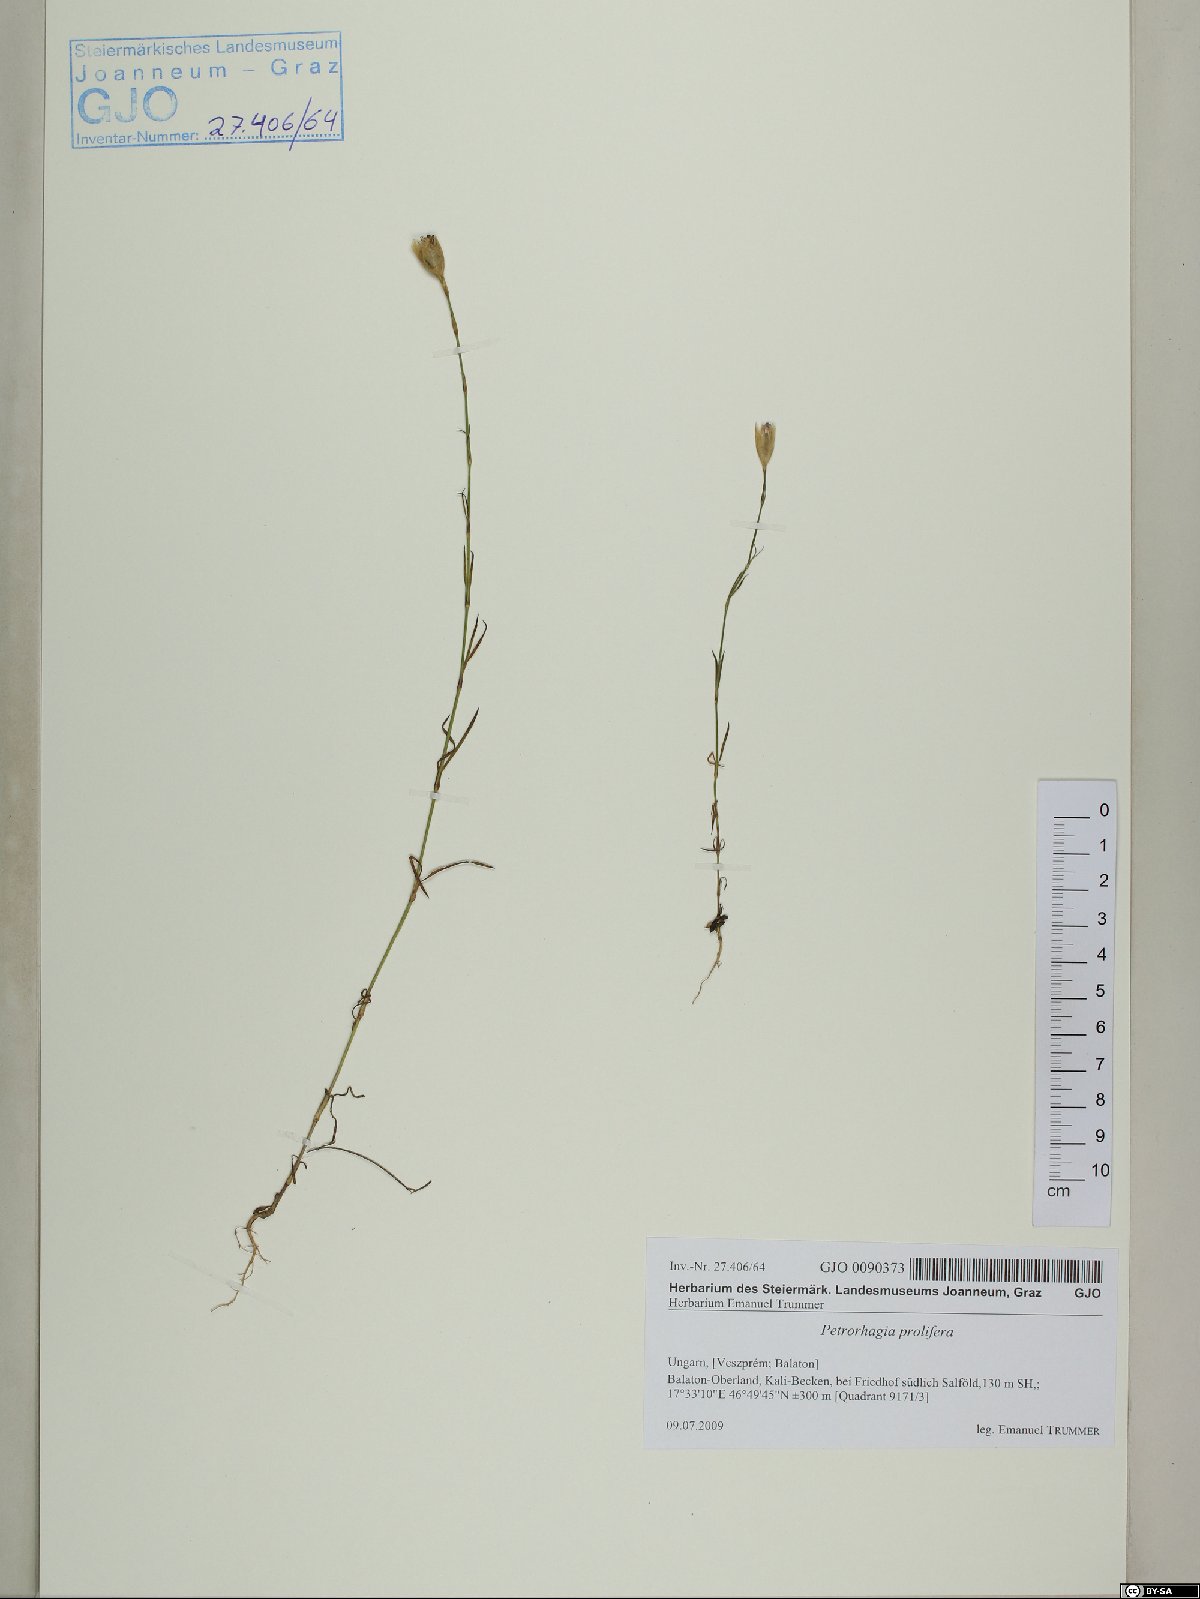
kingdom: Plantae
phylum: Tracheophyta
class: Magnoliopsida
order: Caryophyllales
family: Caryophyllaceae
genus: Petrorhagia
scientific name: Petrorhagia prolifera
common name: Proliferous pink
